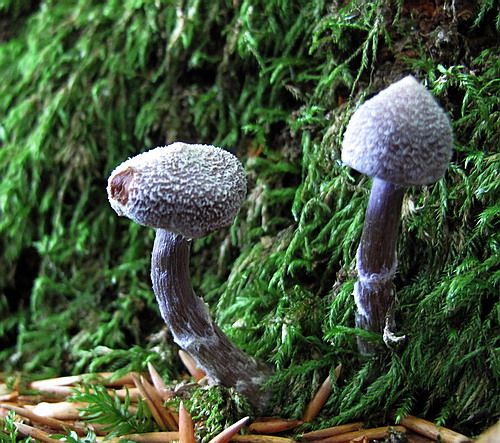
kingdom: Fungi
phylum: Basidiomycota
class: Agaricomycetes
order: Agaricales
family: Cortinariaceae
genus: Cortinarius
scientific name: Cortinarius
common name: pelargonie-slørhat
